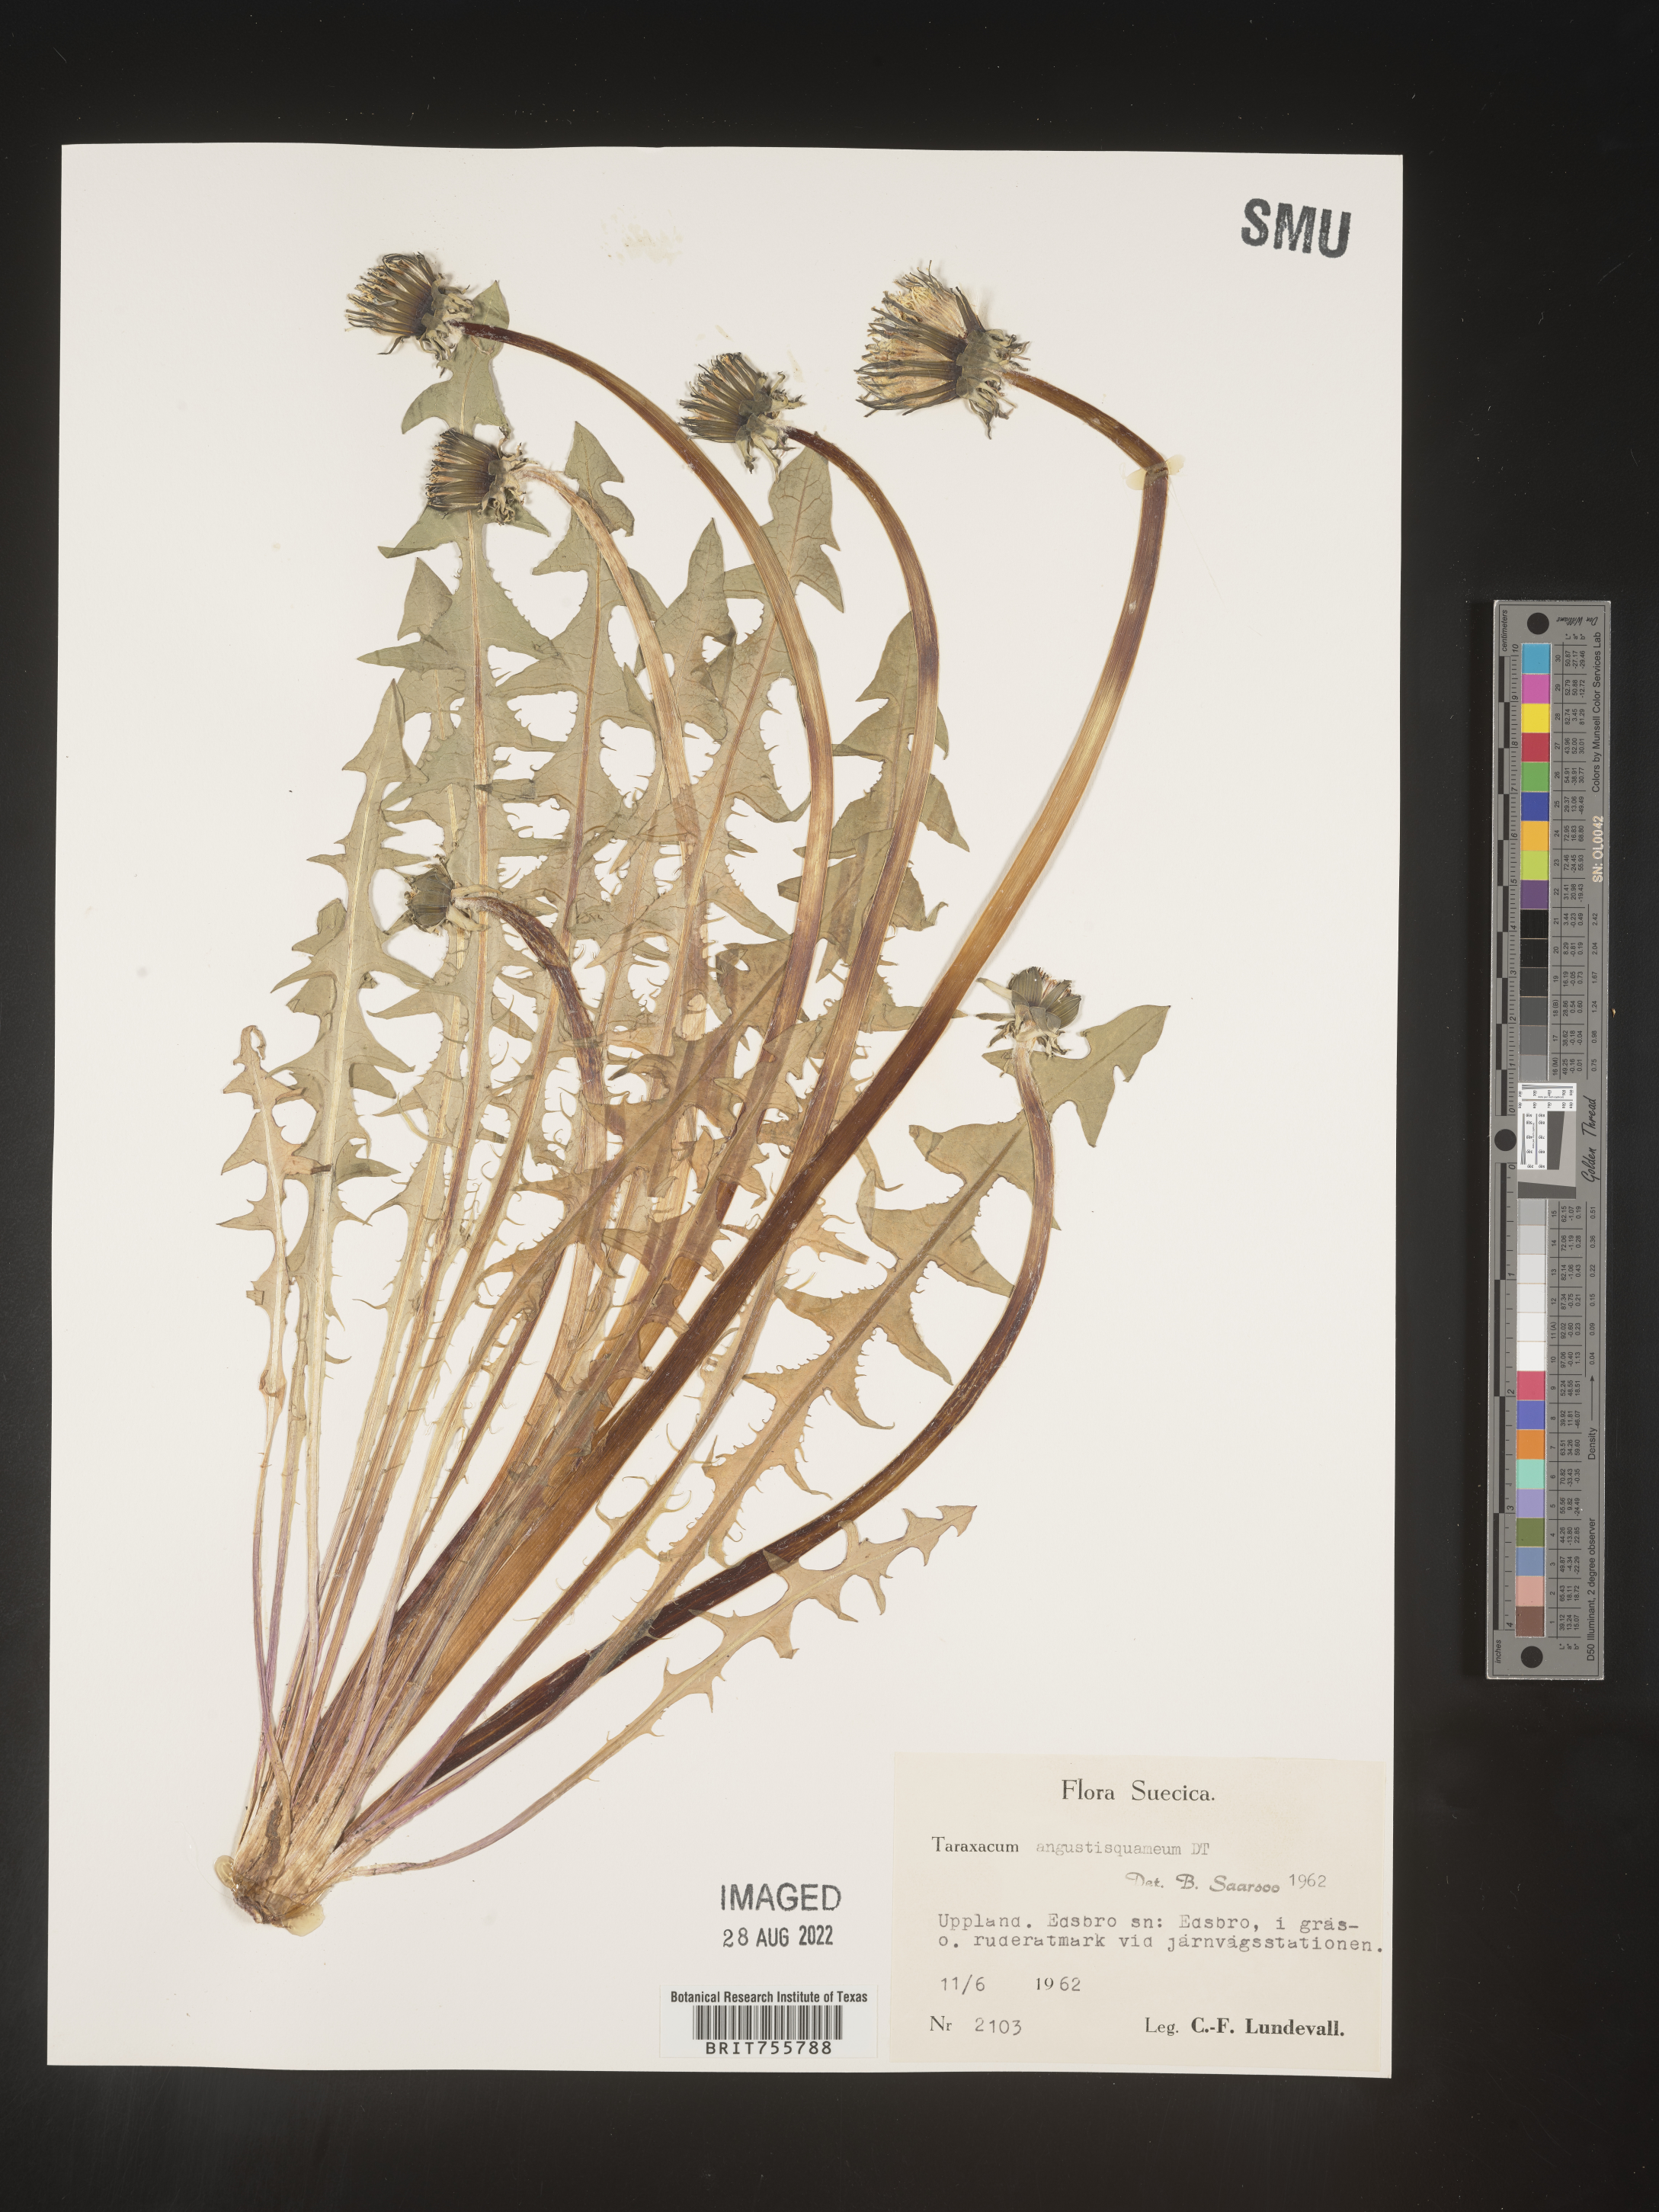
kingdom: Plantae
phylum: Tracheophyta
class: Magnoliopsida
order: Asterales
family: Asteraceae
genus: Taraxacum
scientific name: Taraxacum
